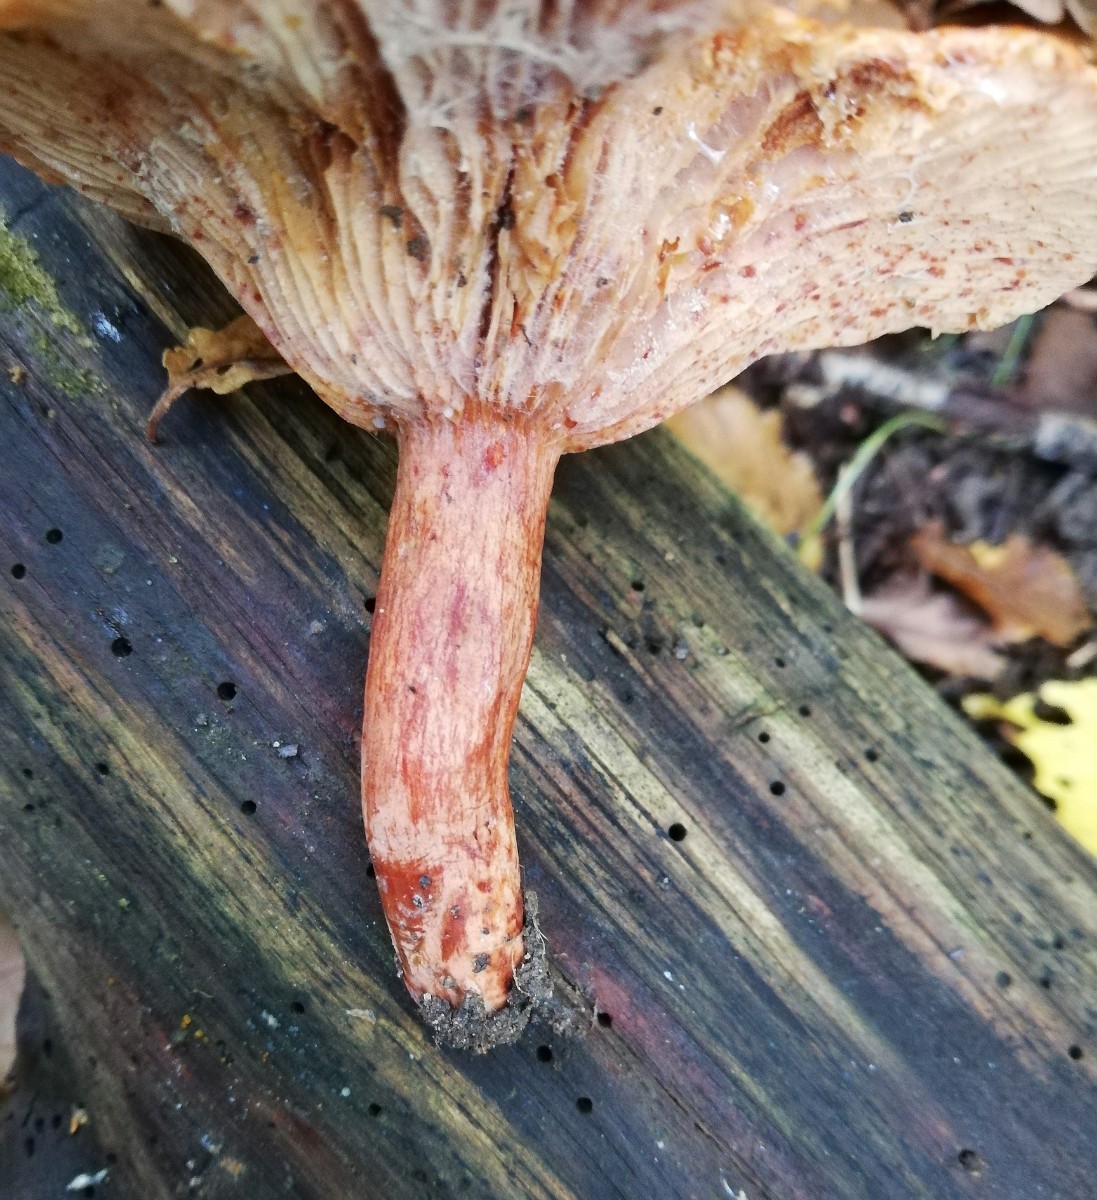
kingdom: Fungi
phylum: Basidiomycota
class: Agaricomycetes
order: Russulales
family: Russulaceae
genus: Lactarius
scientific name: Lactarius quietus
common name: ege-mælkehat
